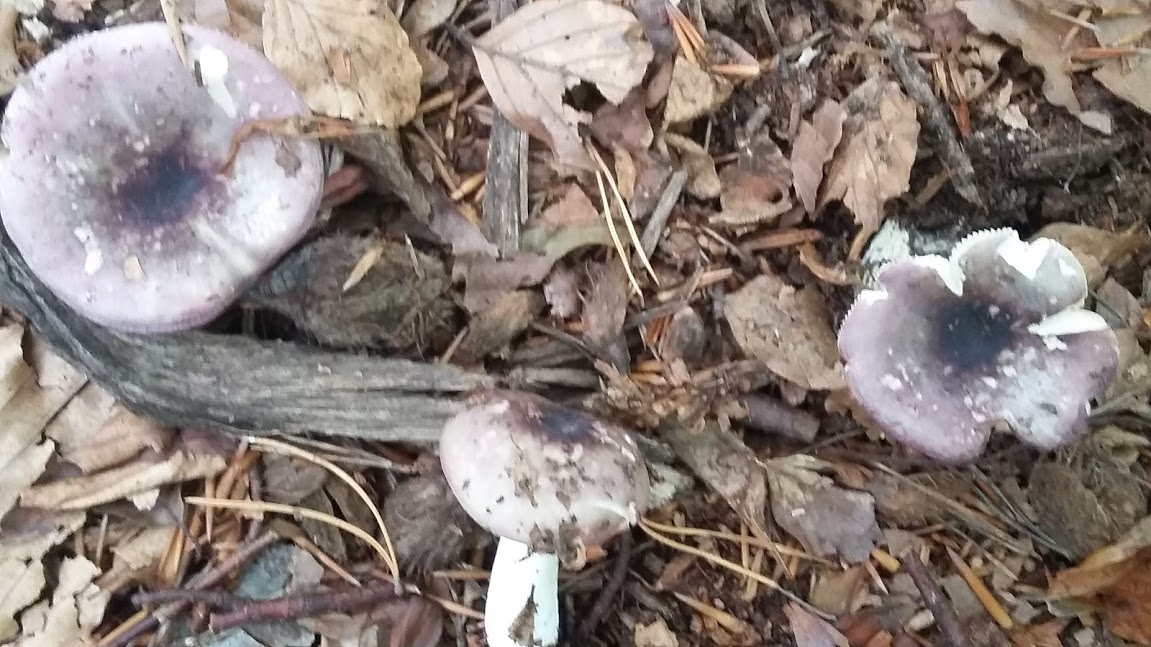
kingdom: Fungi
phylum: Basidiomycota
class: Agaricomycetes
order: Russulales
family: Russulaceae
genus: Russula
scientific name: Russula
